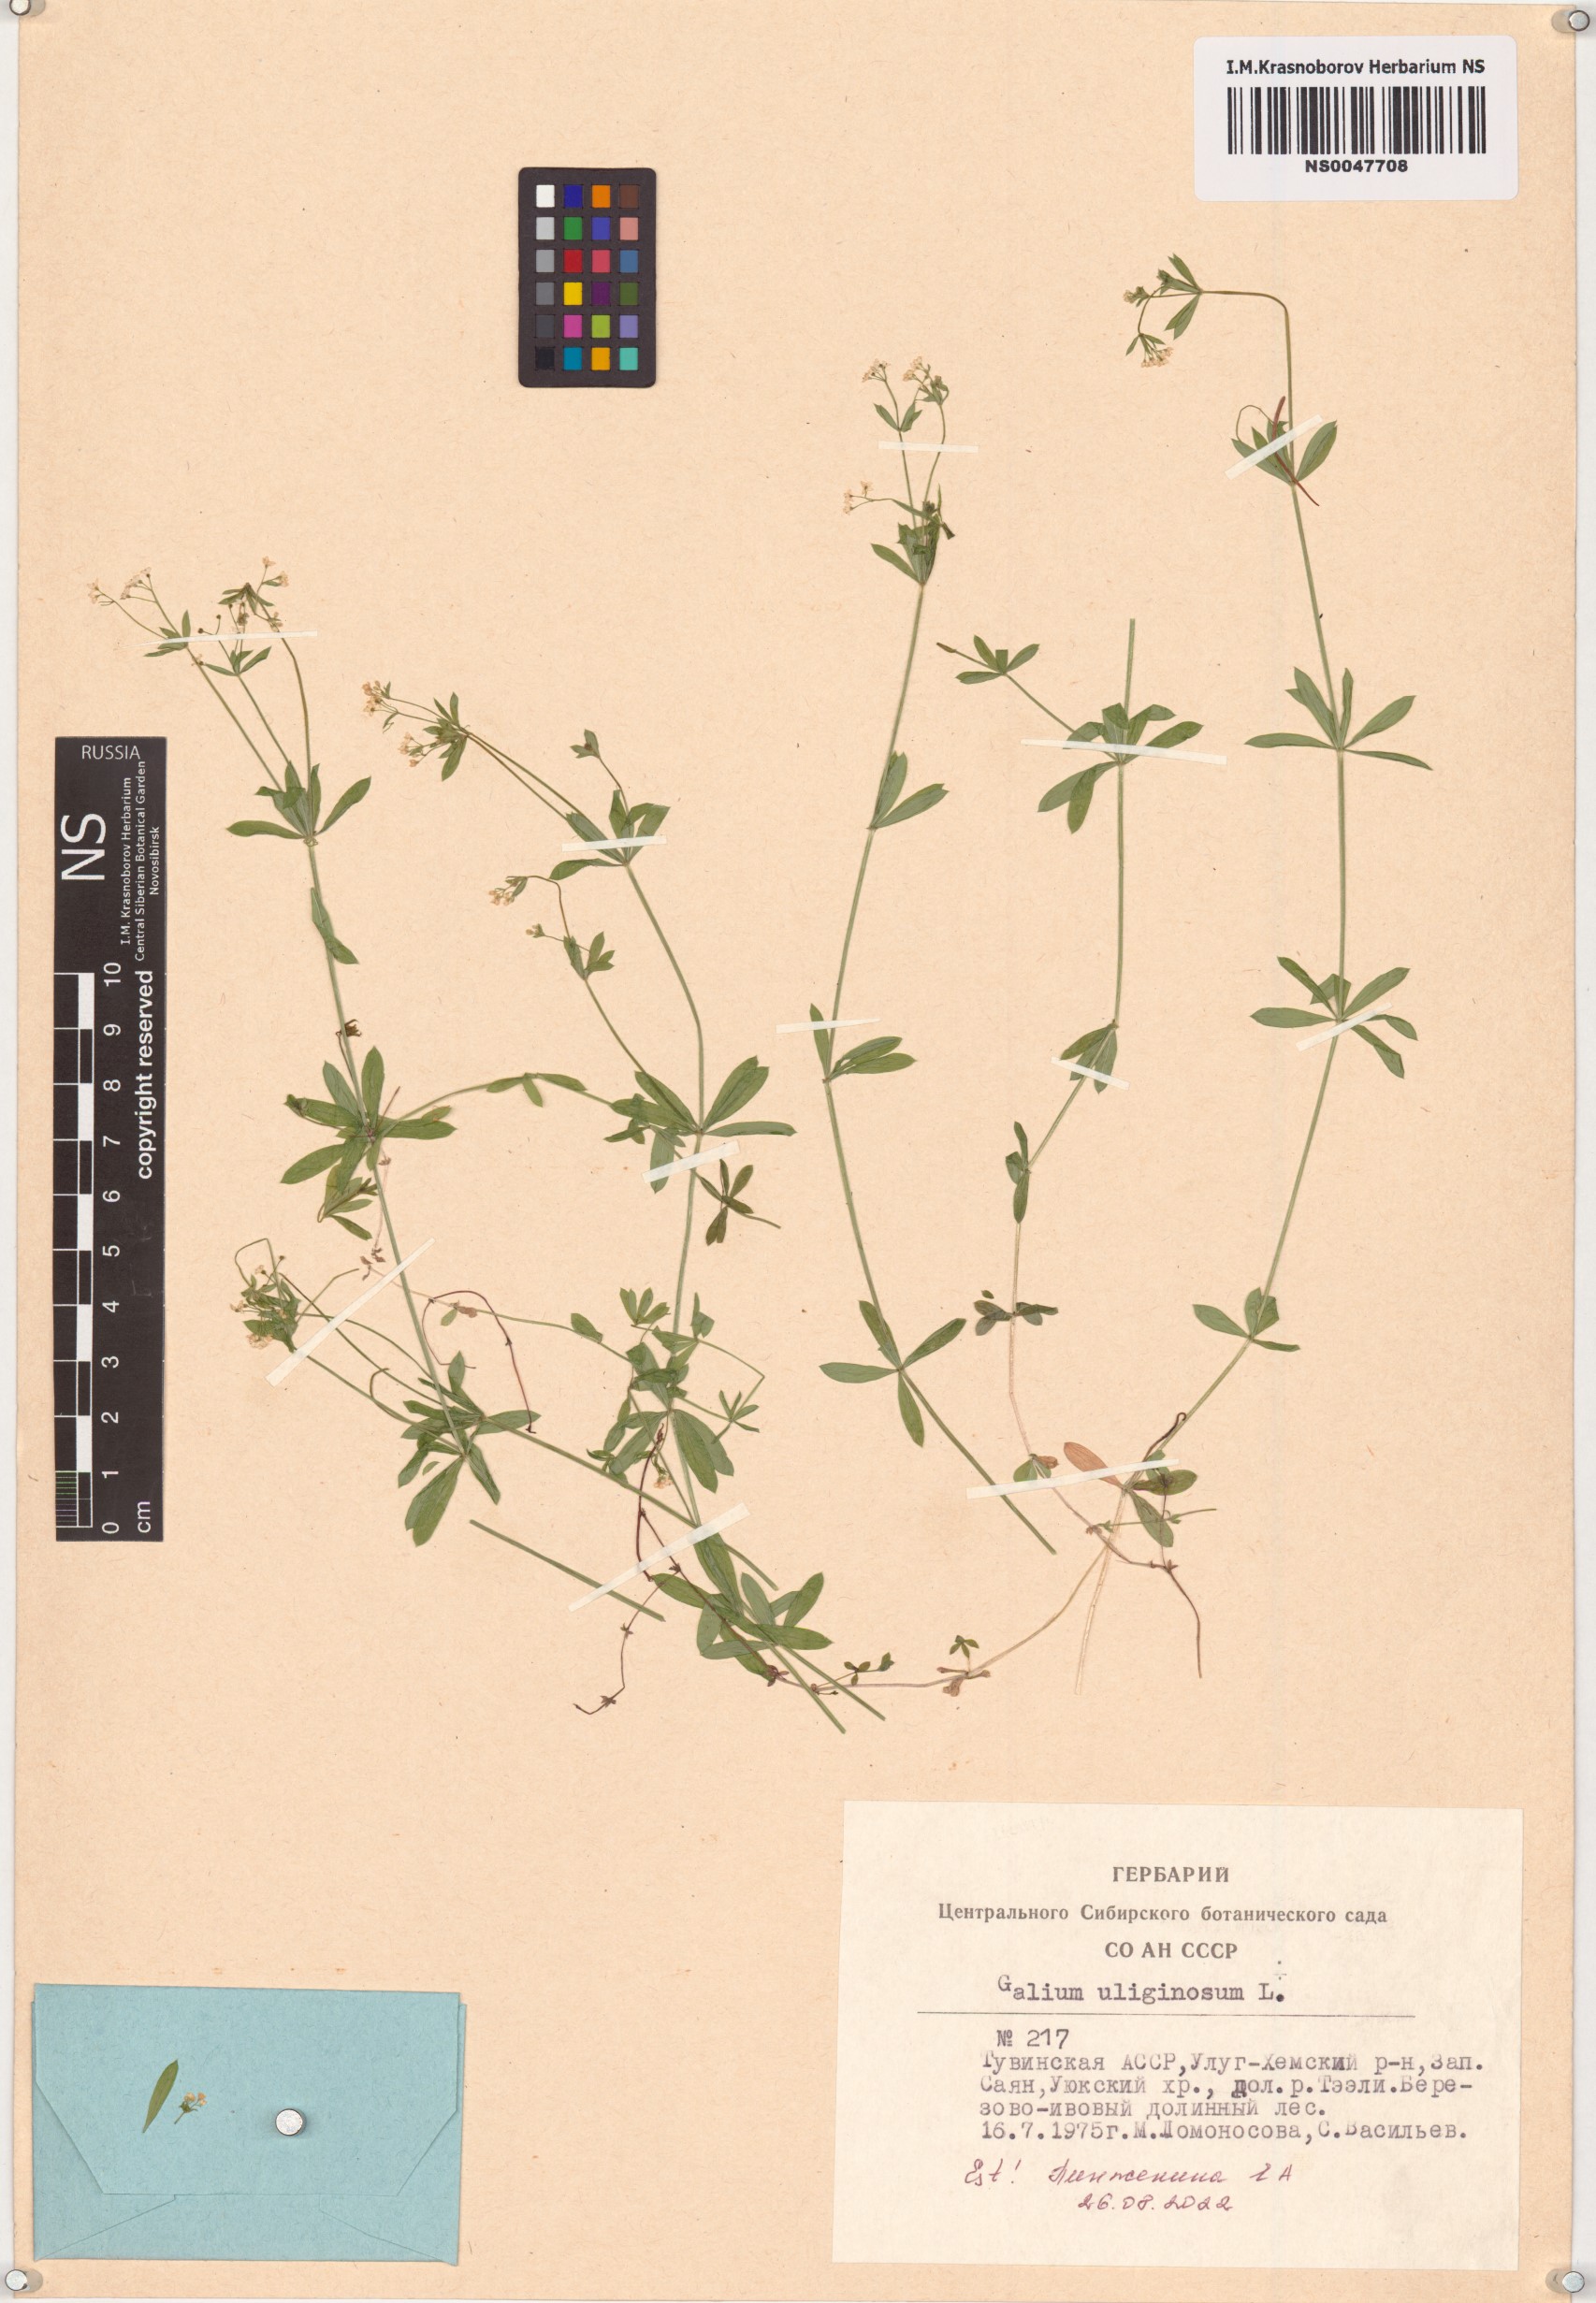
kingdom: Plantae
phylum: Tracheophyta
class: Magnoliopsida
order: Gentianales
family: Rubiaceae
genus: Galium
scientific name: Galium uliginosum
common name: Fen bedstraw
